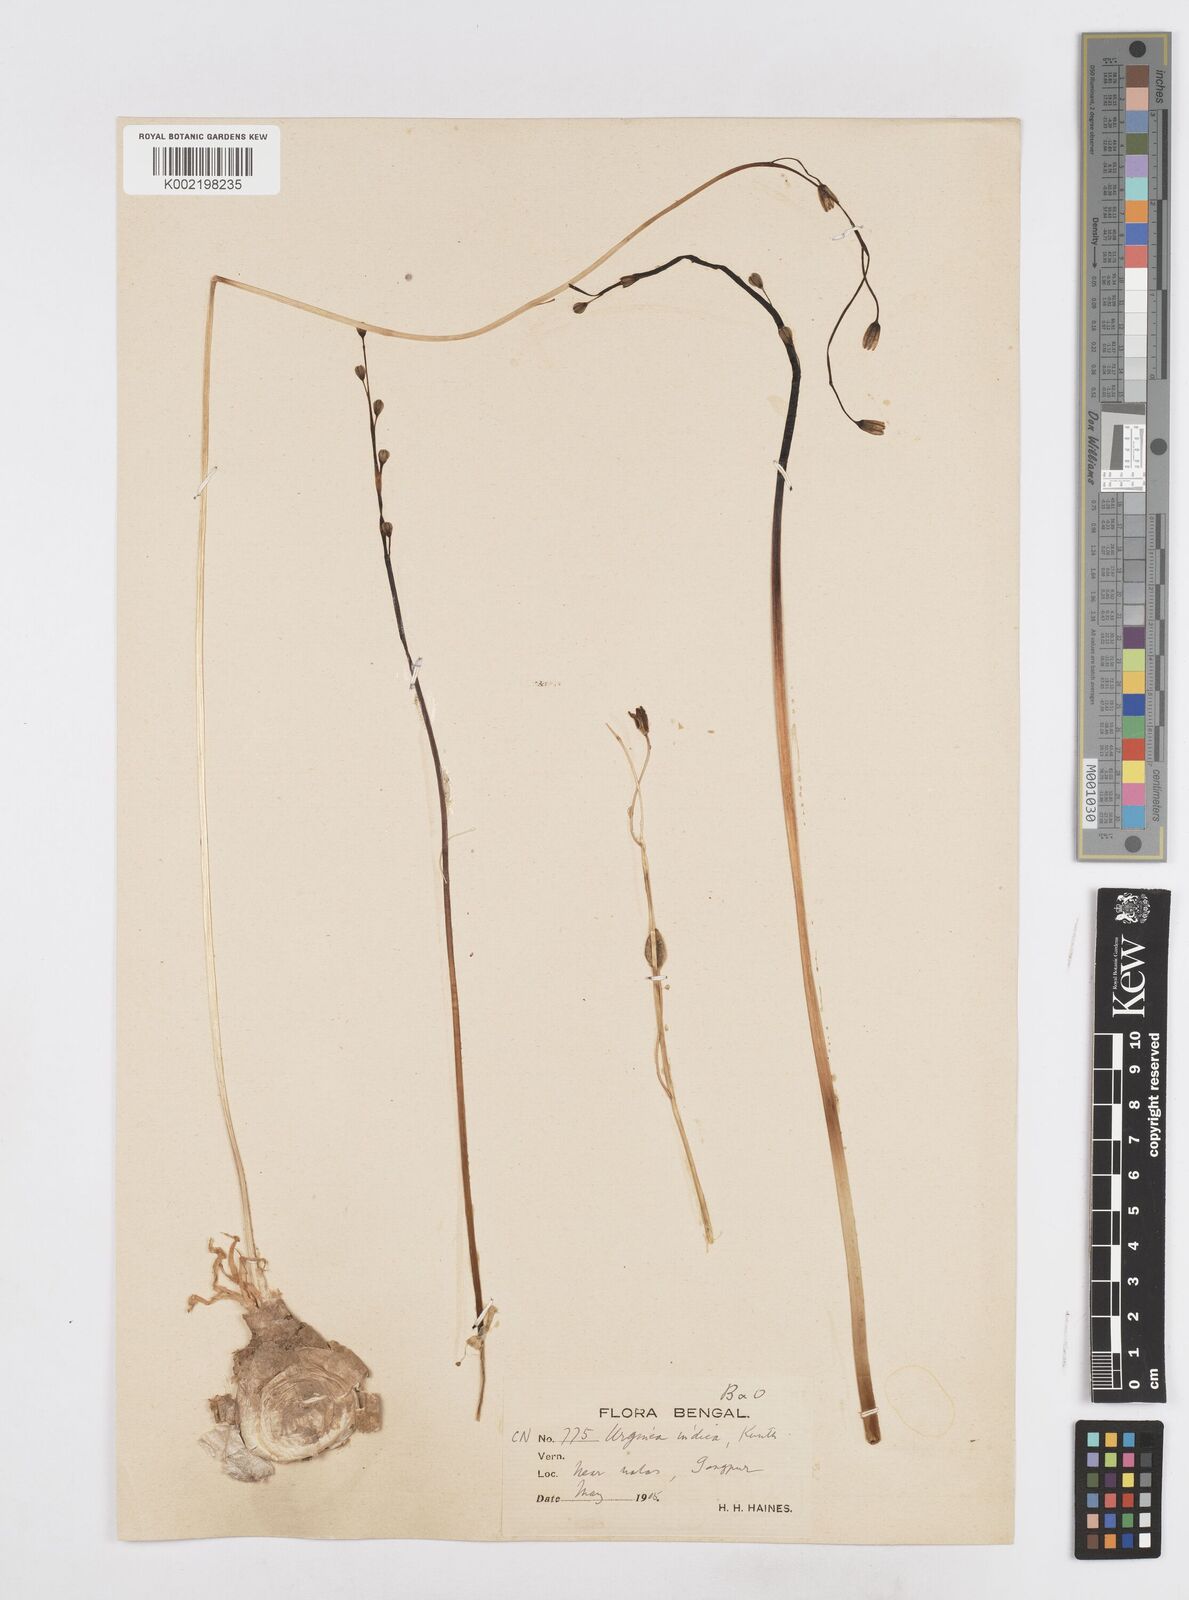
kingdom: Plantae
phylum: Tracheophyta
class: Liliopsida
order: Asparagales
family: Asparagaceae
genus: Drimia
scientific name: Drimia indica
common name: Indian-squill
